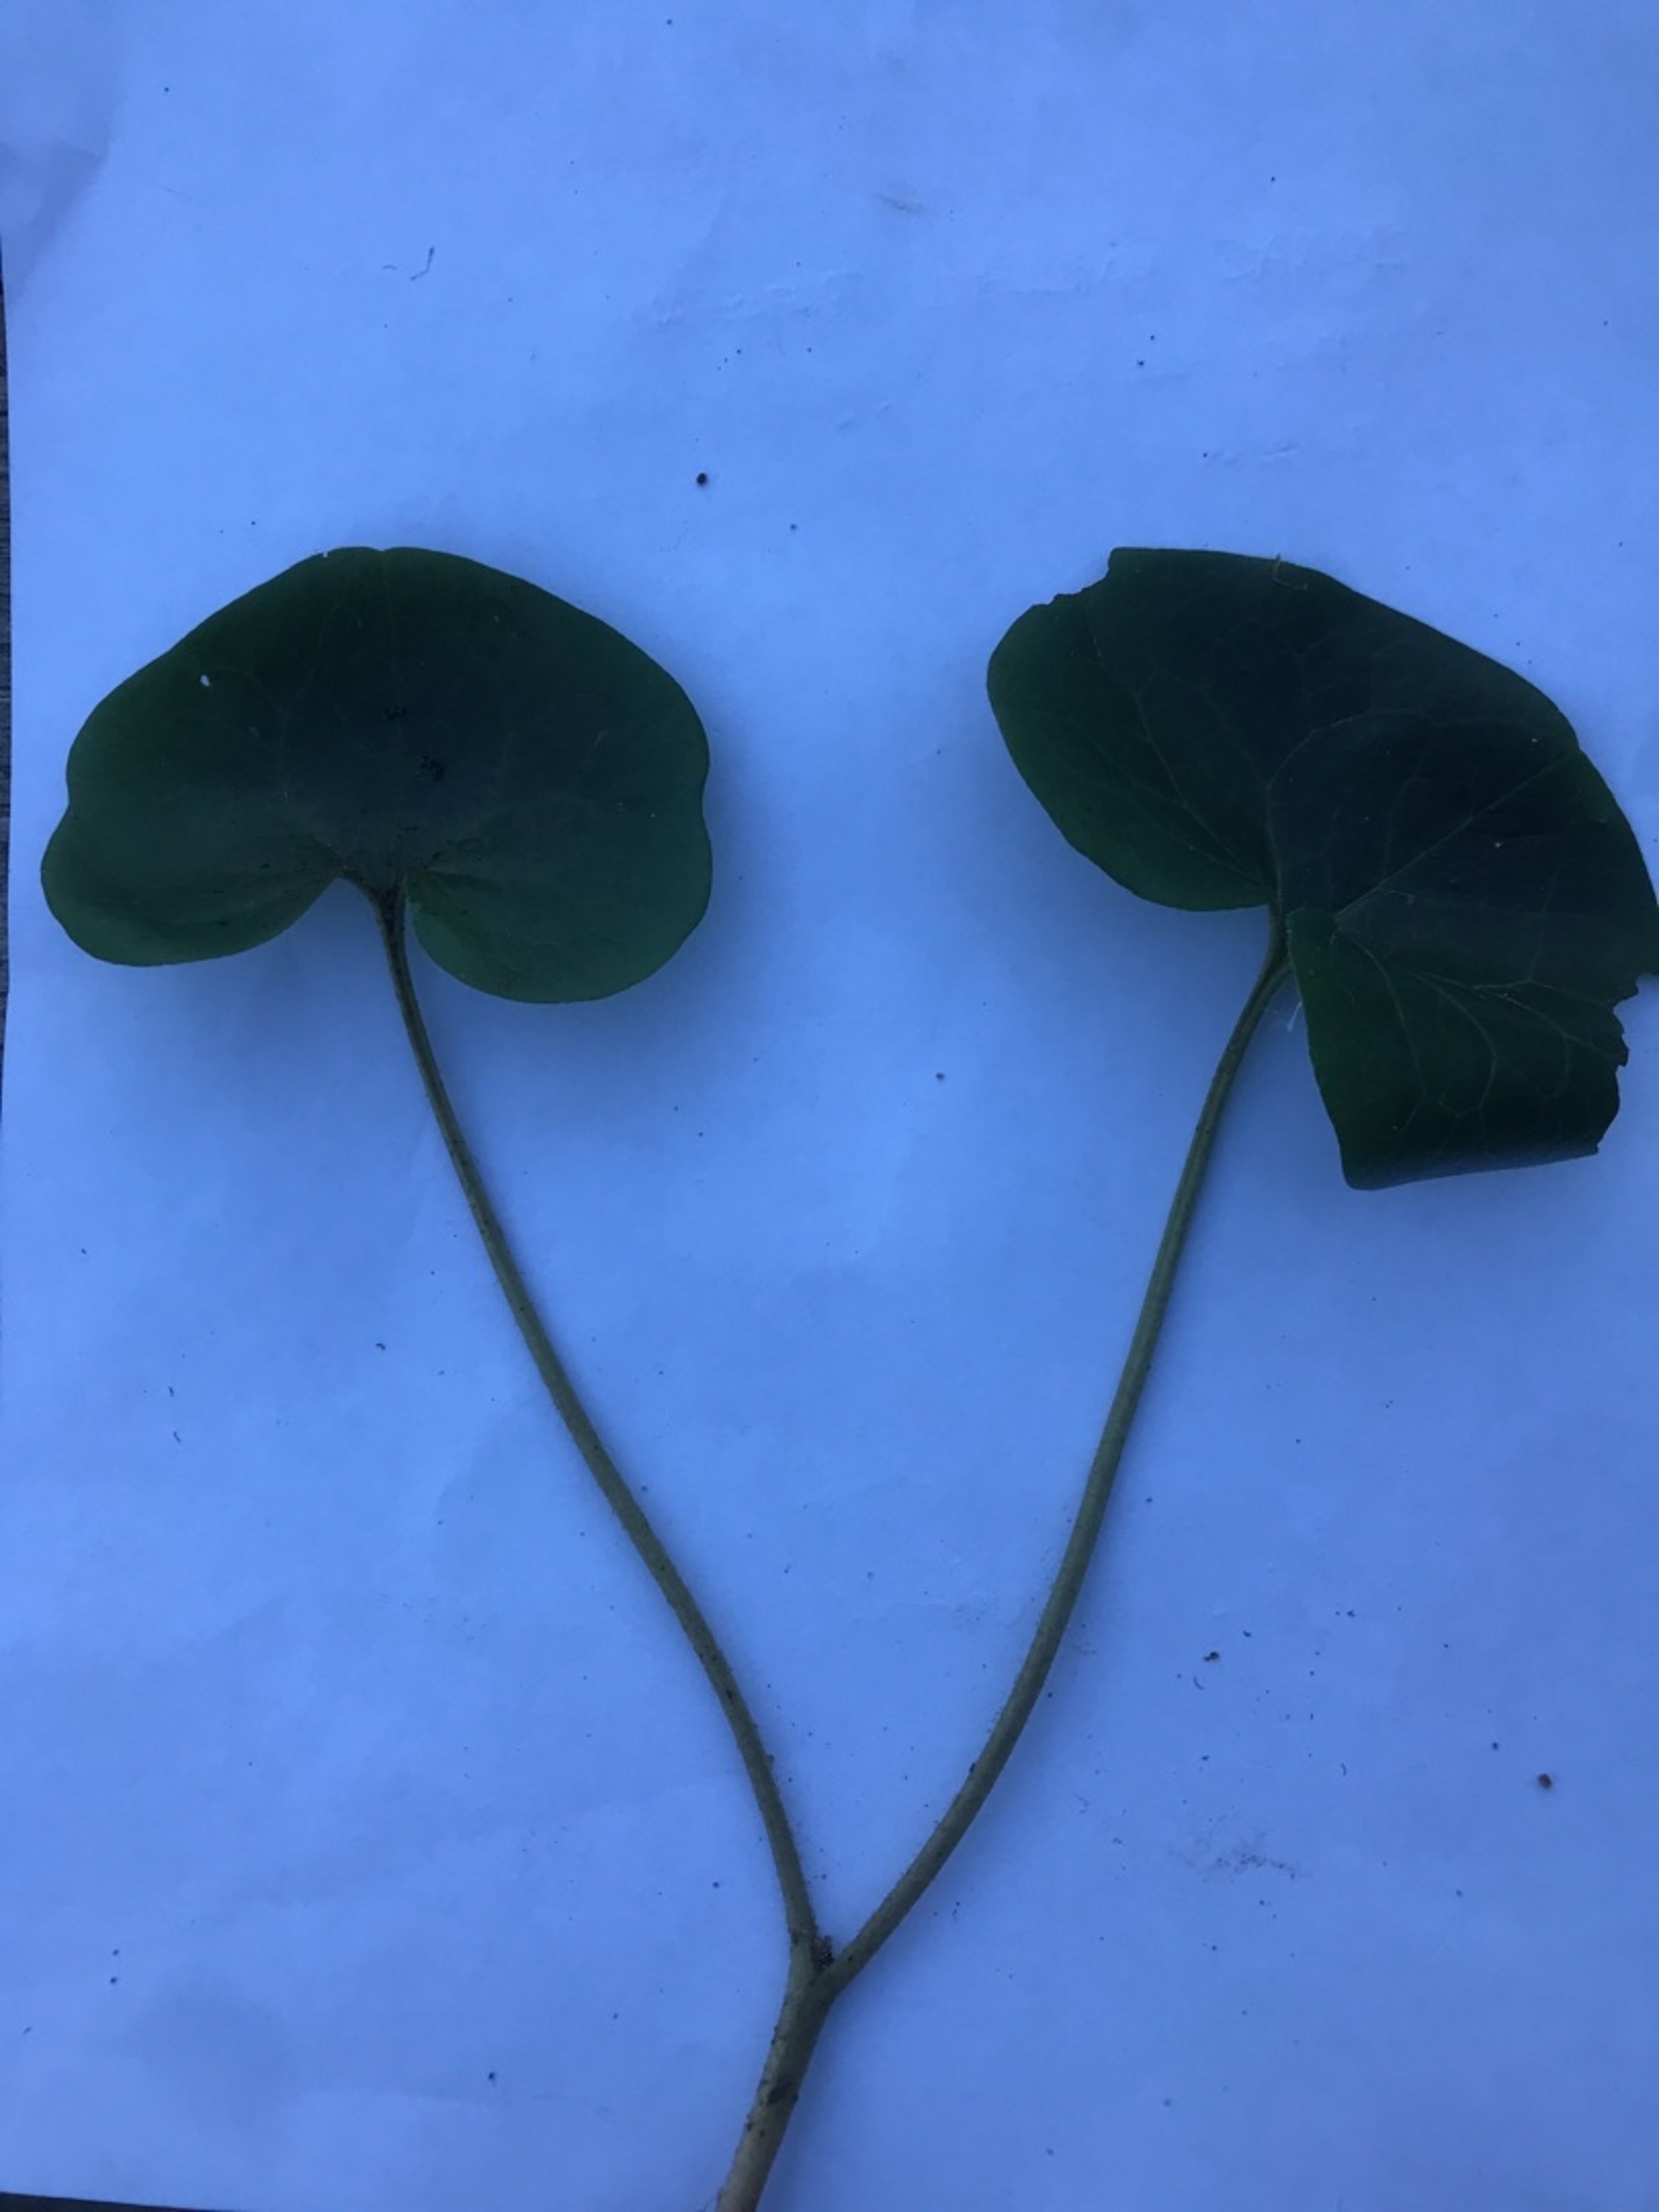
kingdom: Plantae
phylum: Tracheophyta
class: Magnoliopsida
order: Piperales
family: Aristolochiaceae
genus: Asarum
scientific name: Asarum europaeum
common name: Hasselurt
